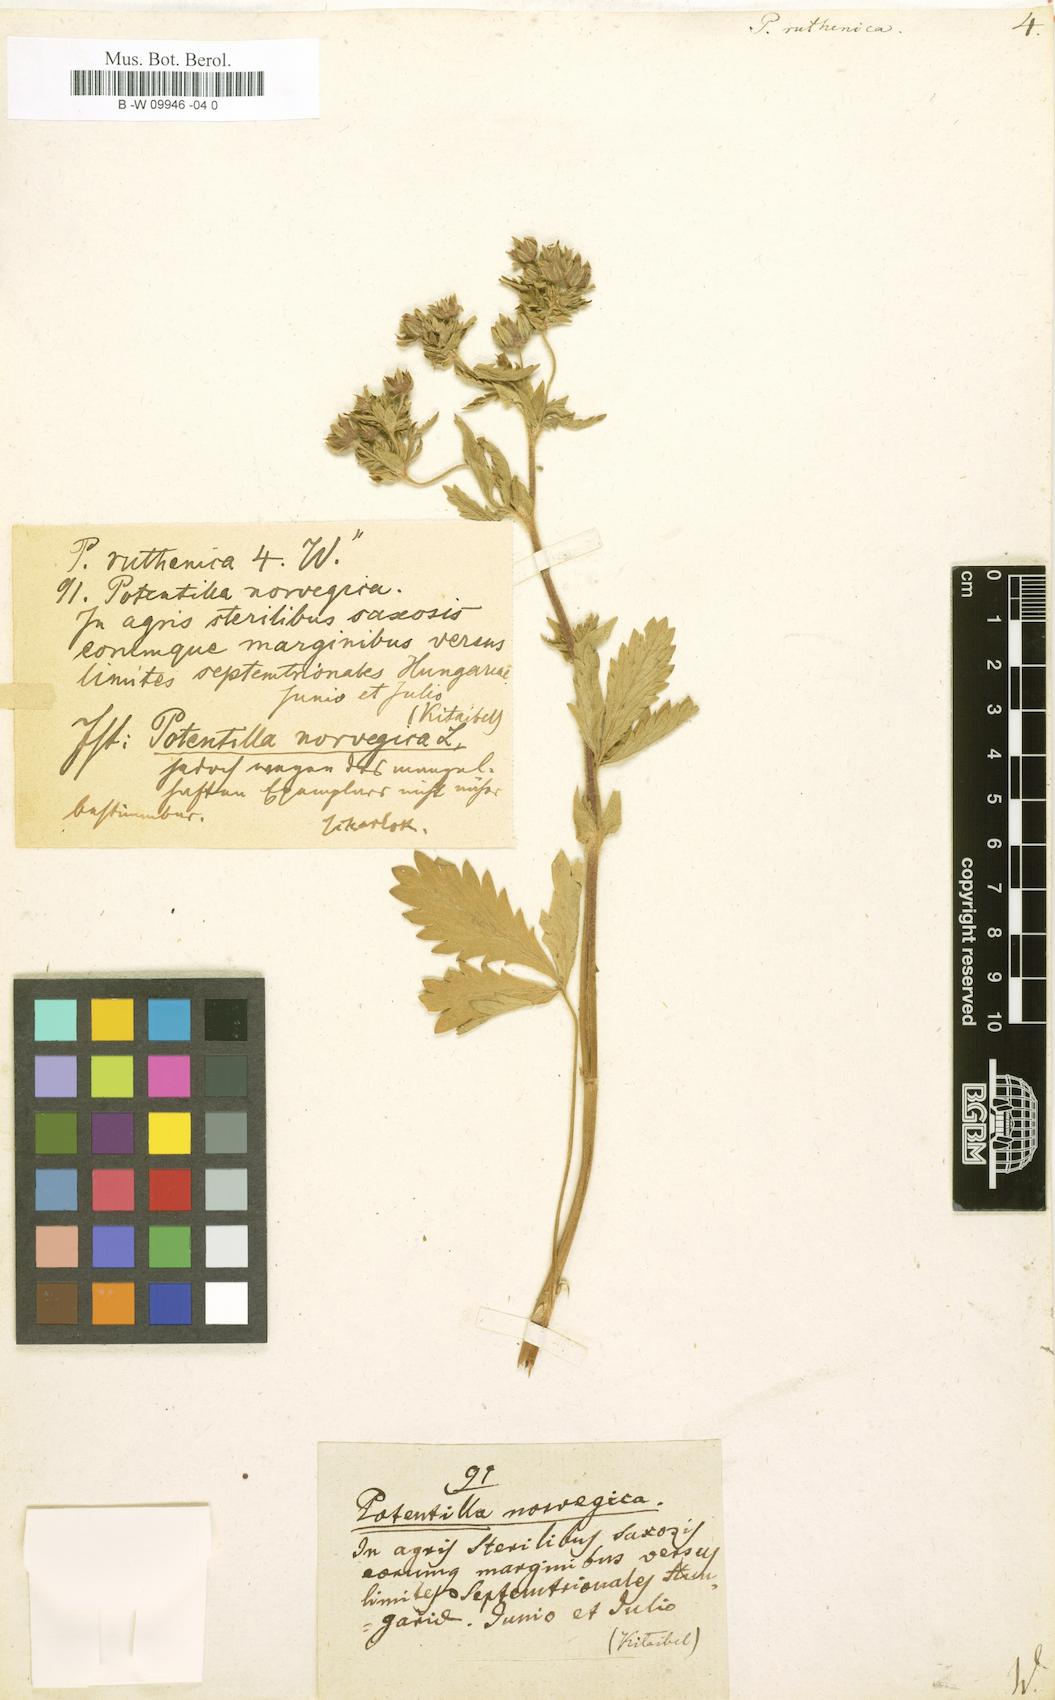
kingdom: Plantae
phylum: Tracheophyta
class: Magnoliopsida
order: Rosales
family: Rosaceae
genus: Potentilla
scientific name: Potentilla
